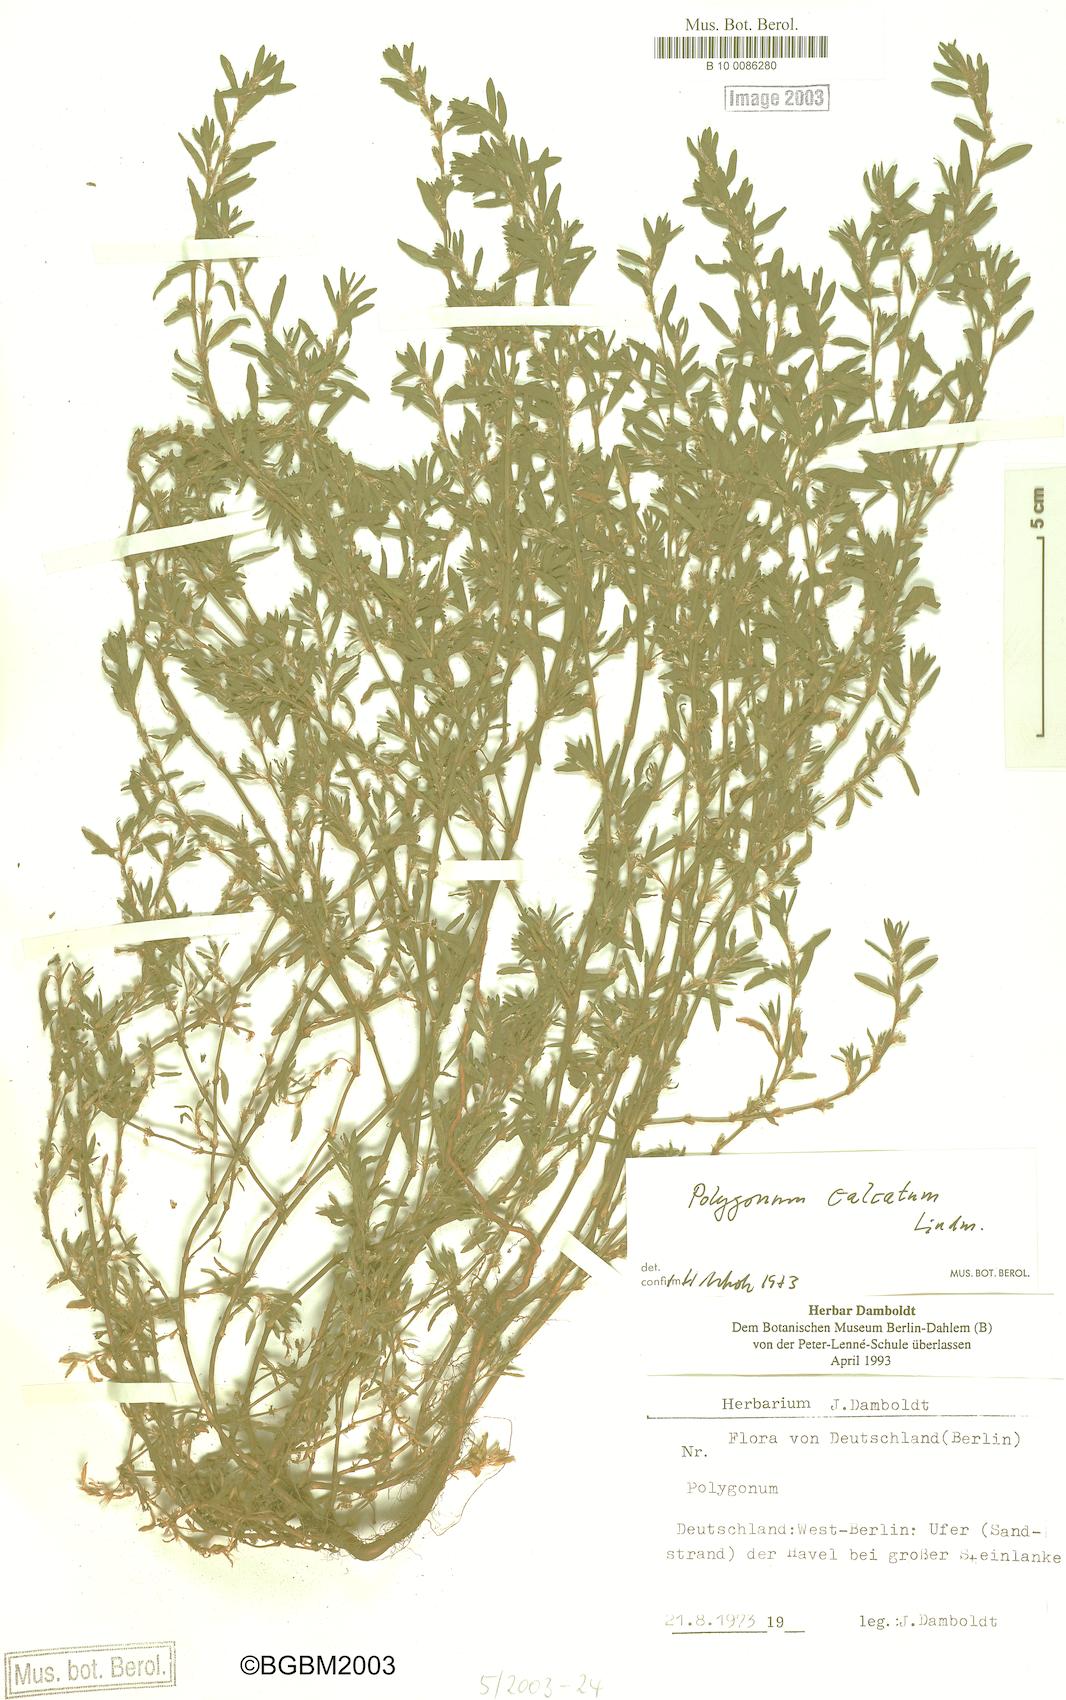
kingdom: Plantae
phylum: Tracheophyta
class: Magnoliopsida
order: Caryophyllales
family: Polygonaceae
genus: Polygonum
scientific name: Polygonum arenastrum
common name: Equal-leaved knotgrass
